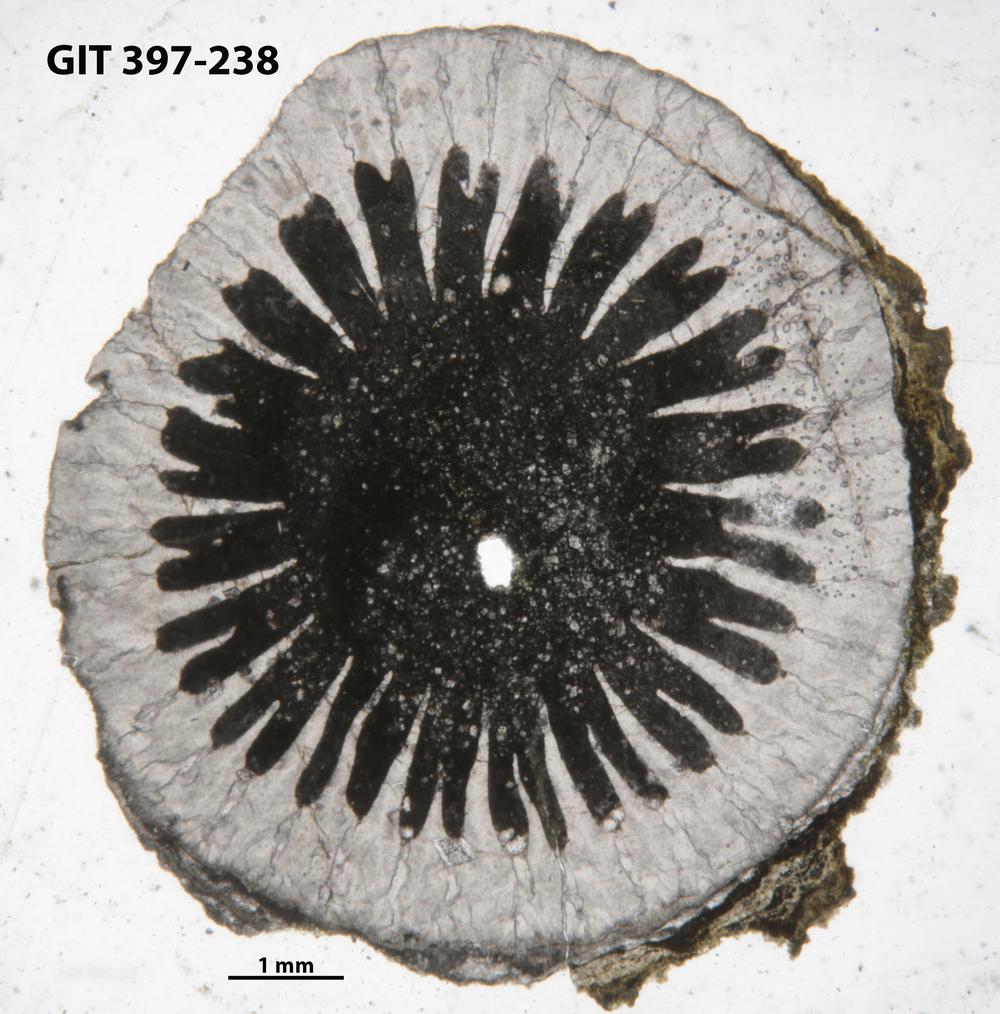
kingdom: Animalia
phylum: Cnidaria
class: Anthozoa
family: Lykophyllidae
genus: Pycnactis
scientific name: Pycnactis
